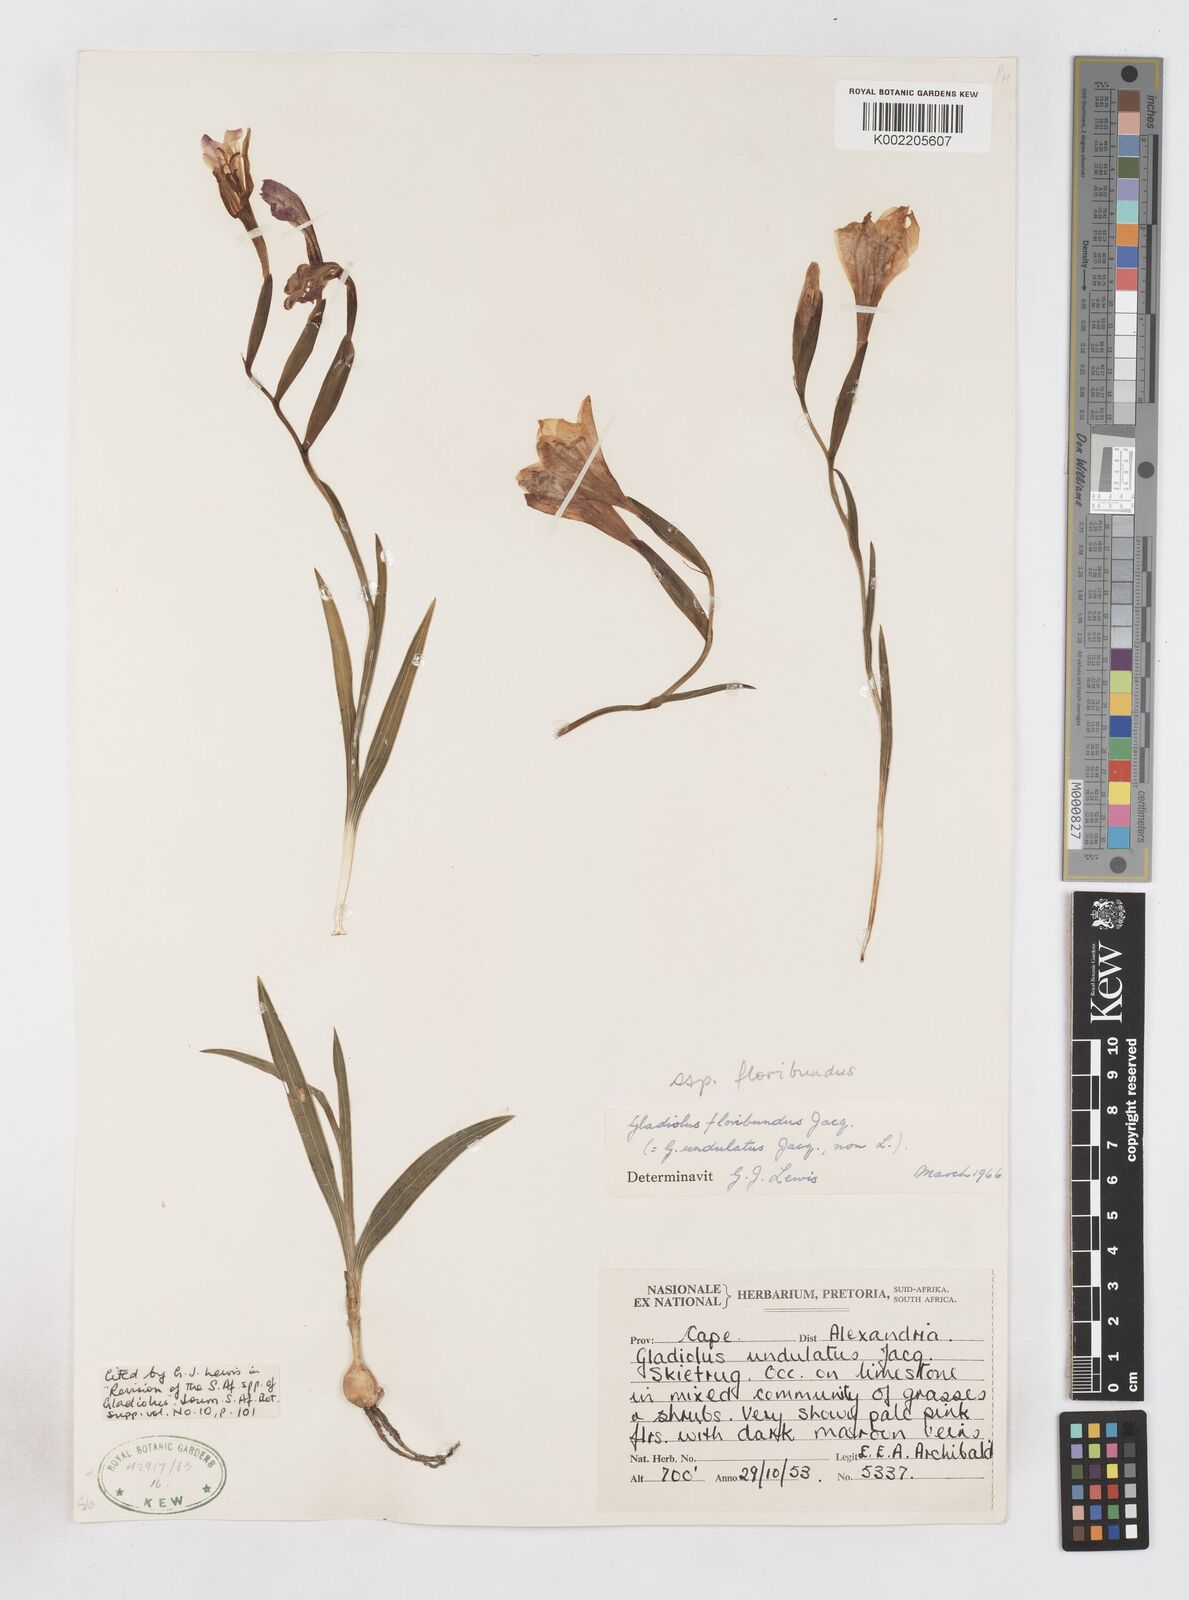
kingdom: Plantae
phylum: Tracheophyta
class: Liliopsida
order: Asparagales
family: Iridaceae
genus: Gladiolus
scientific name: Gladiolus floribundus
